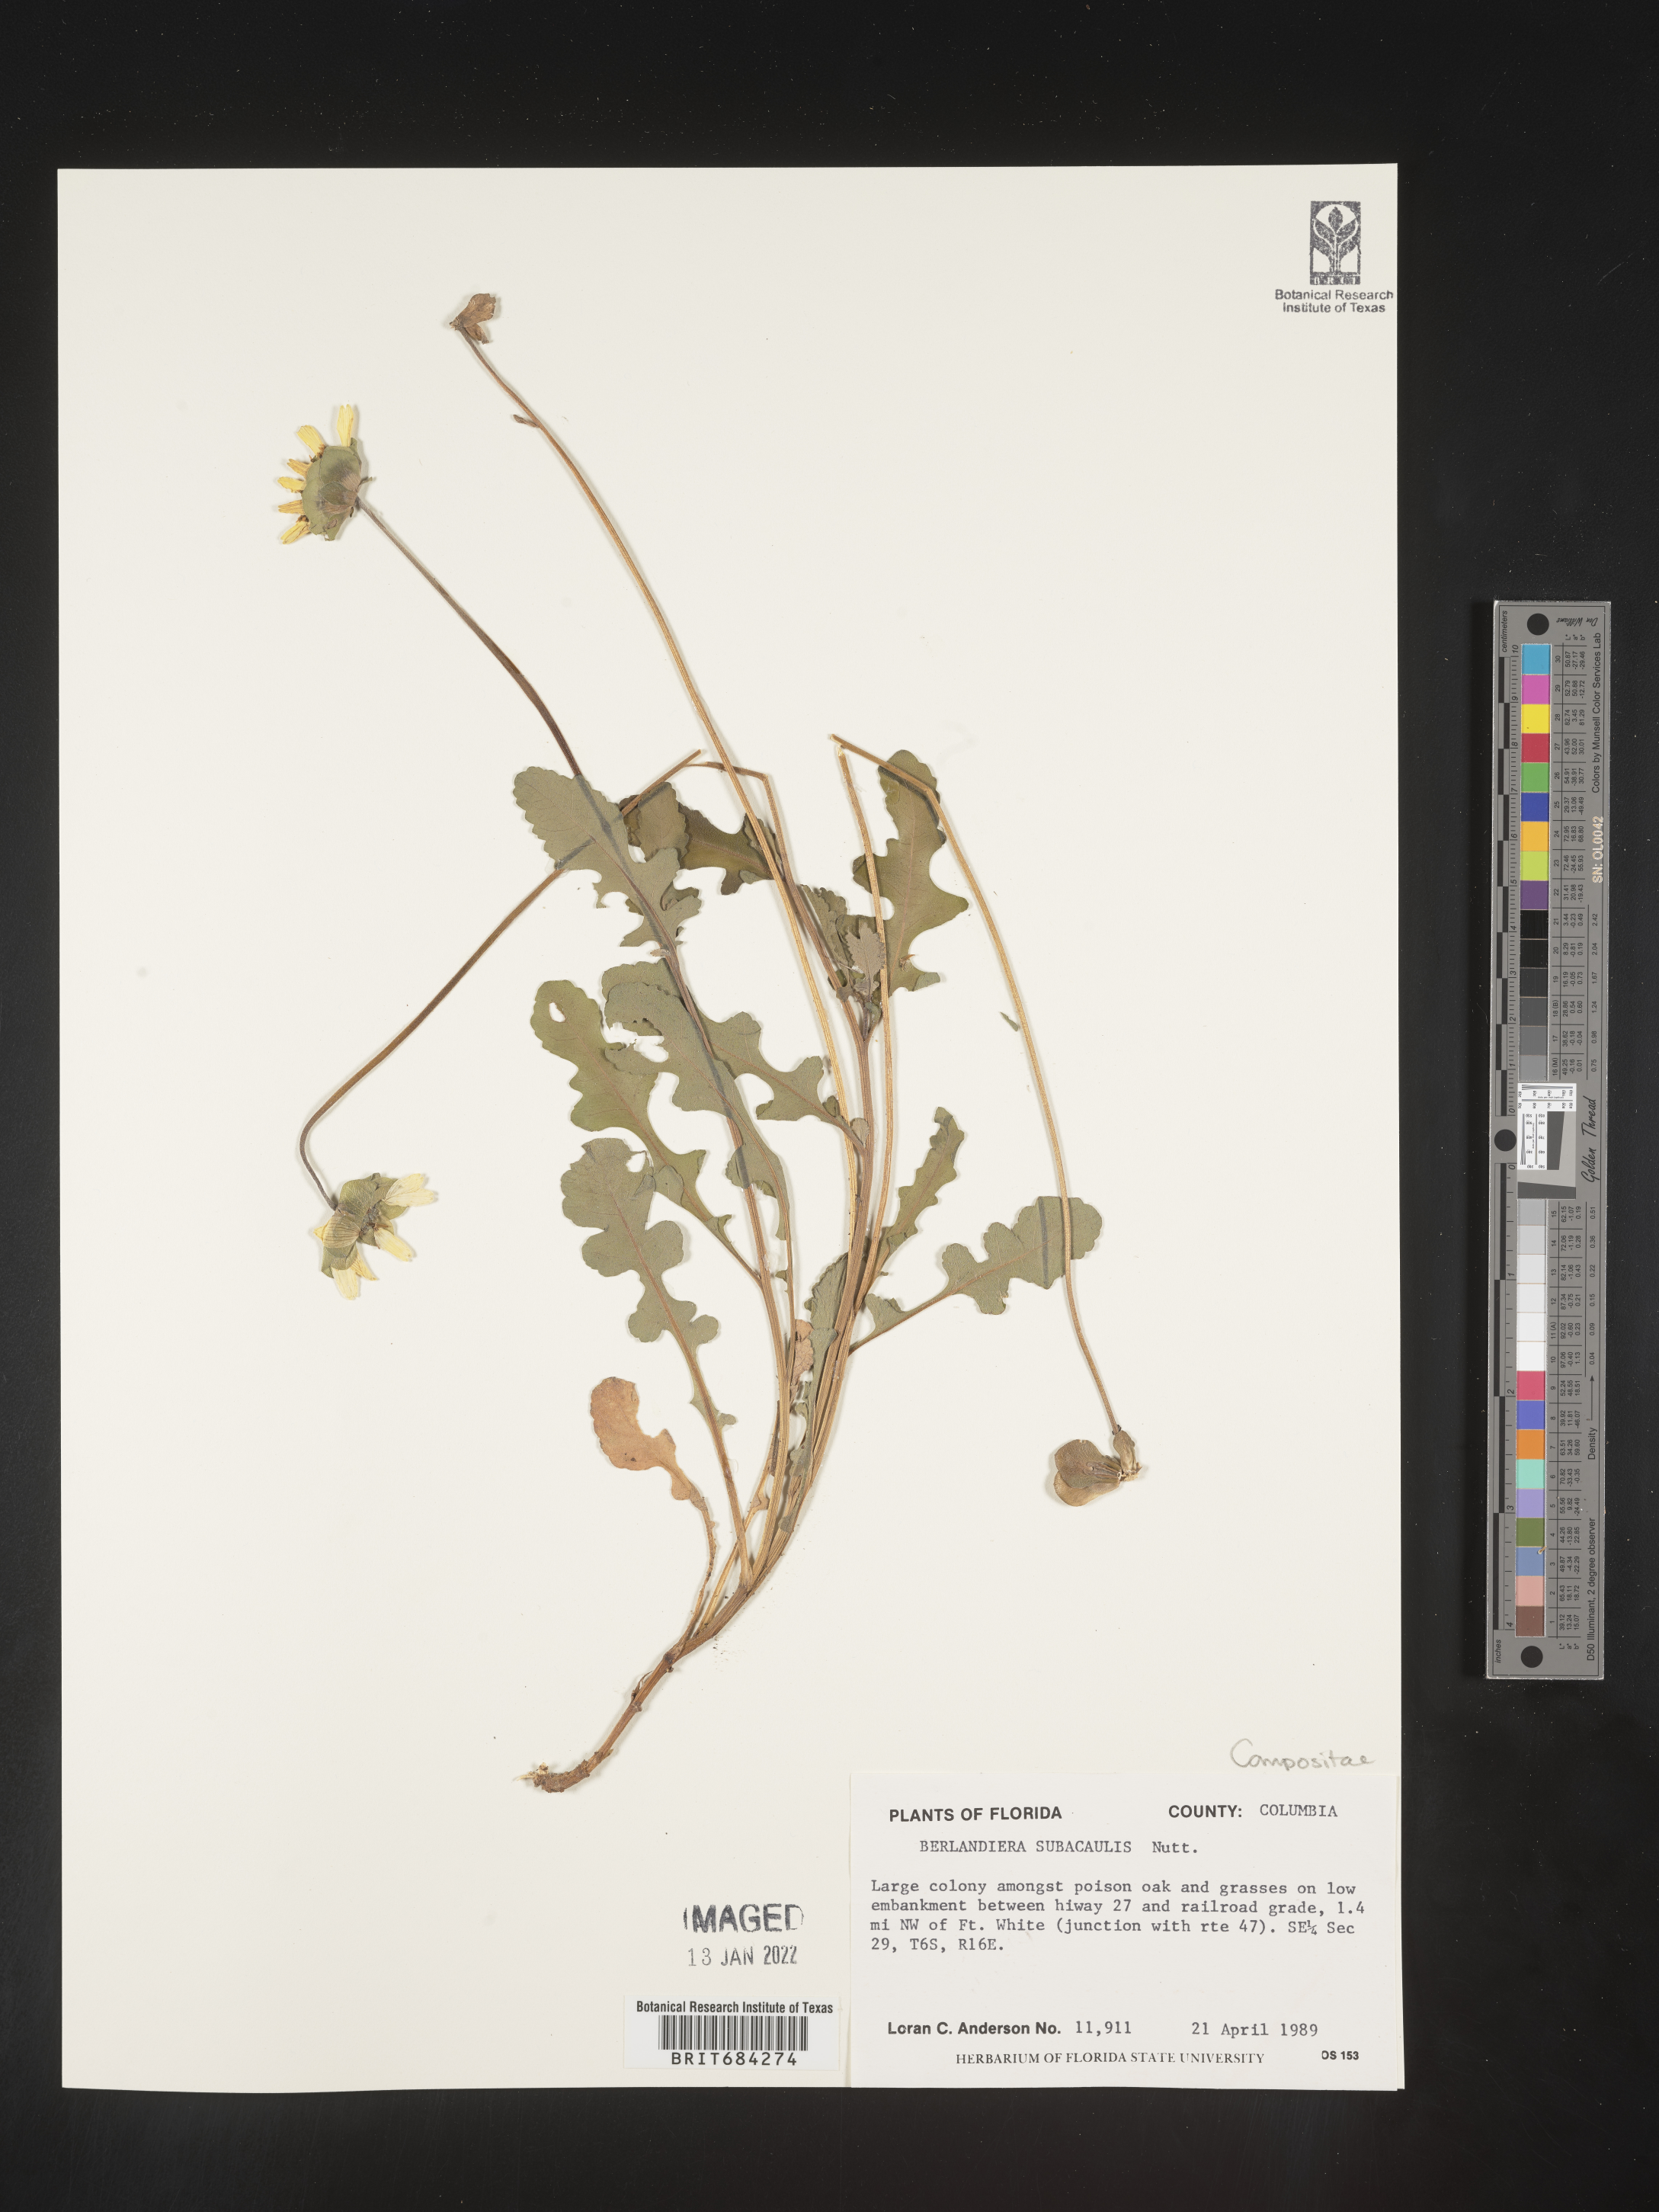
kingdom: Plantae
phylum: Tracheophyta
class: Magnoliopsida
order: Asterales
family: Asteraceae
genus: Berlandiera
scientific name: Berlandiera subacaulis
